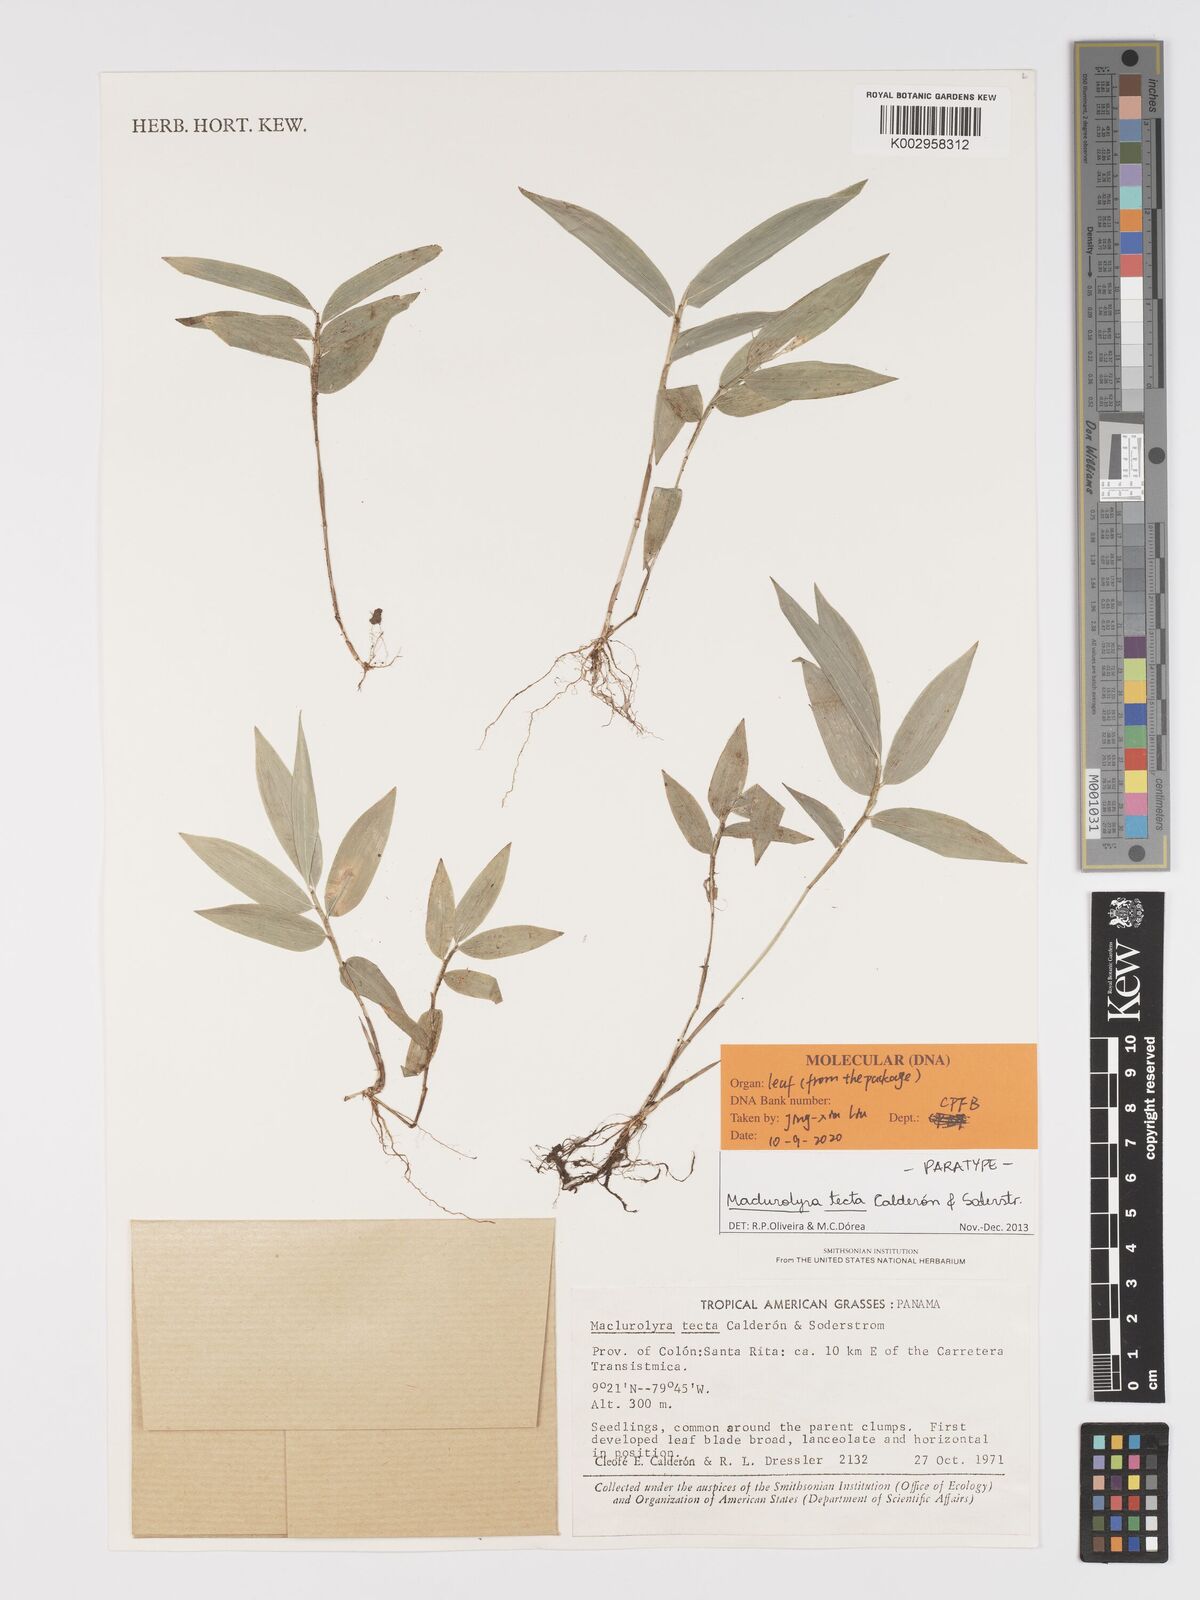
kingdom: Plantae
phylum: Tracheophyta
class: Liliopsida
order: Poales
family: Poaceae
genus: Maclurolyra
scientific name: Maclurolyra tecta
